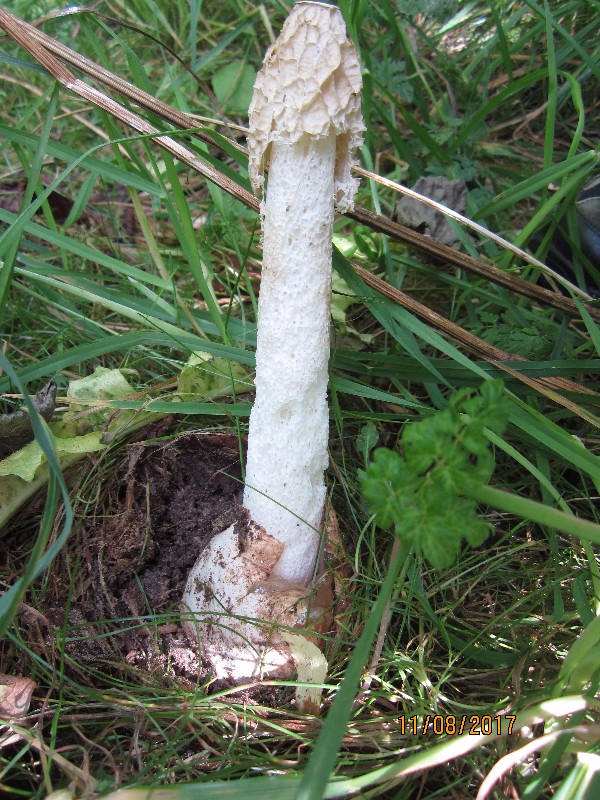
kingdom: Fungi
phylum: Basidiomycota
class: Agaricomycetes
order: Phallales
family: Phallaceae
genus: Phallus
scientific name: Phallus hadriani
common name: sand-stinksvamp
